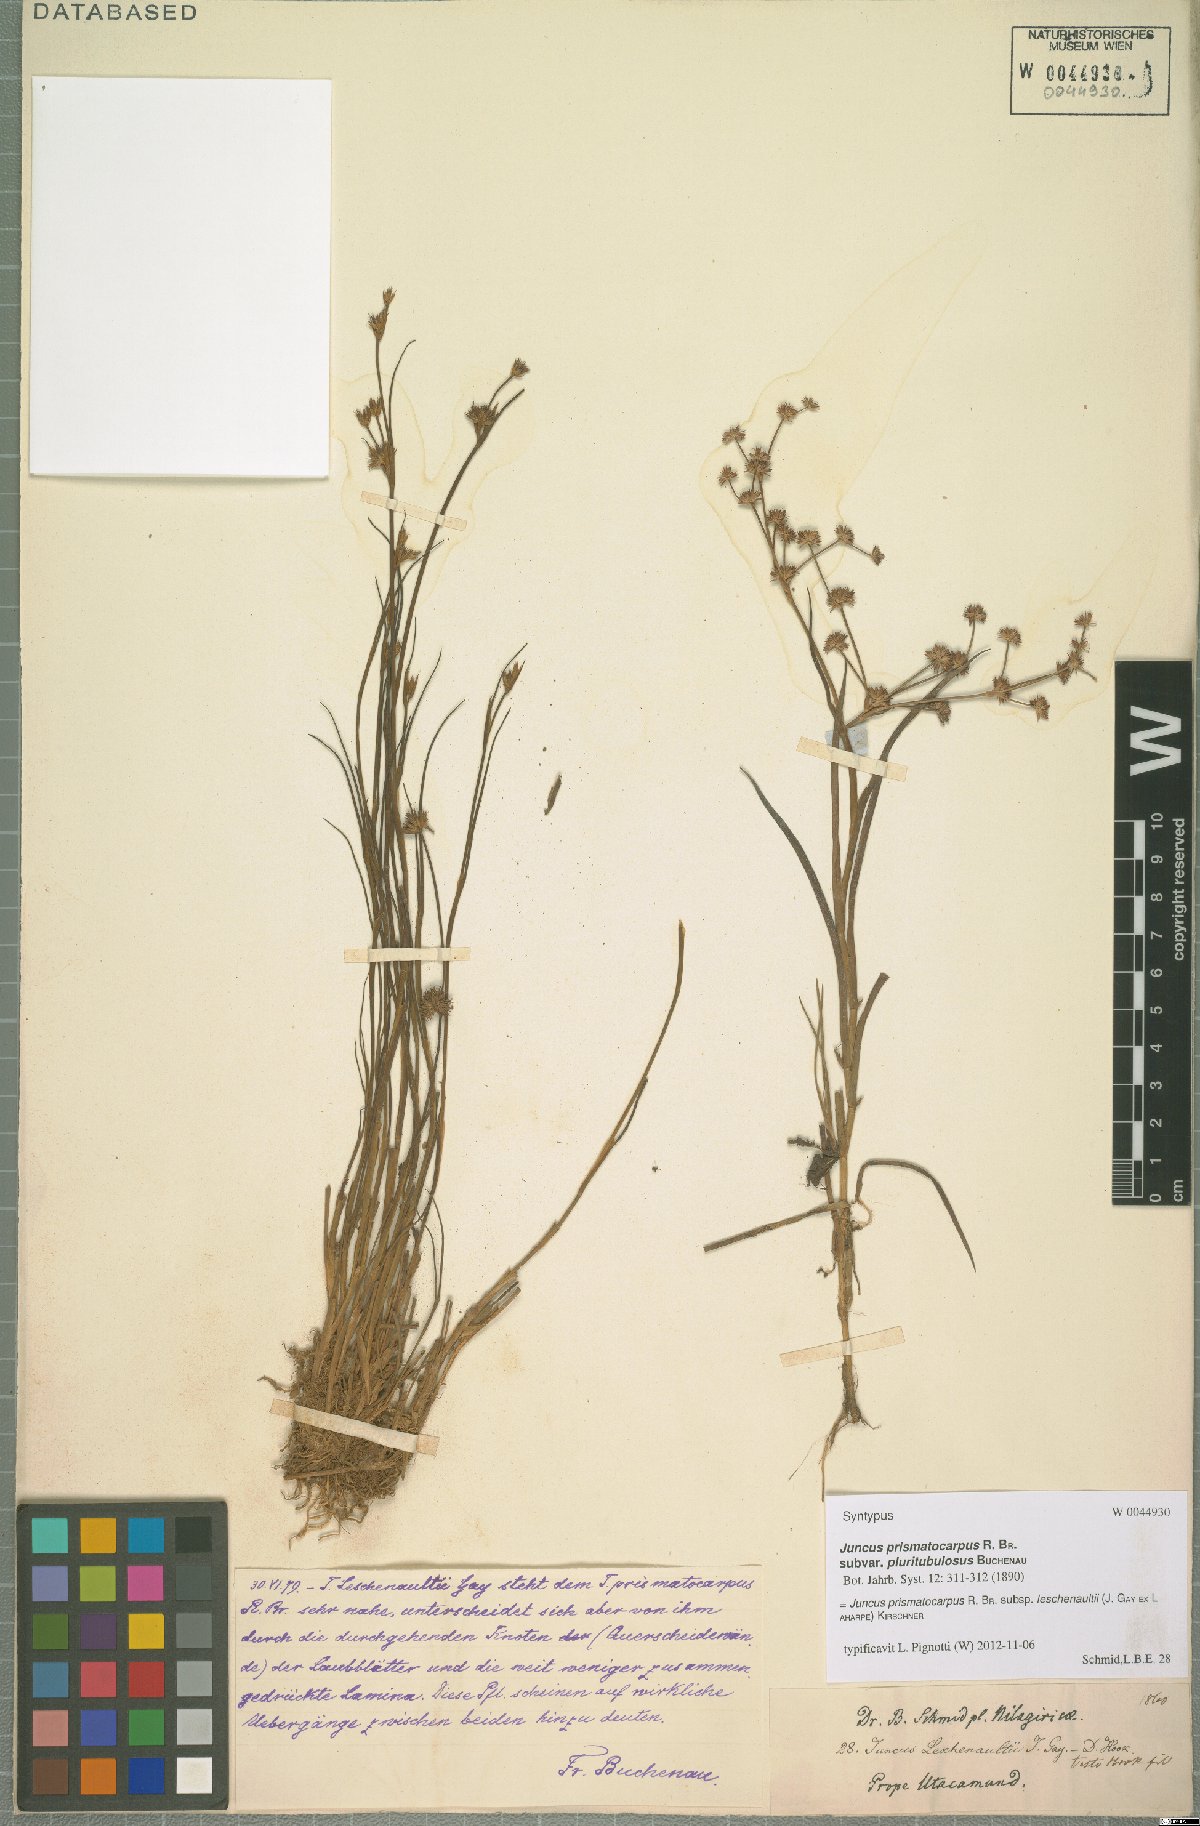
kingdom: Plantae
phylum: Tracheophyta
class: Liliopsida
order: Poales
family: Juncaceae
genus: Juncus
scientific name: Juncus prismatocarpus
